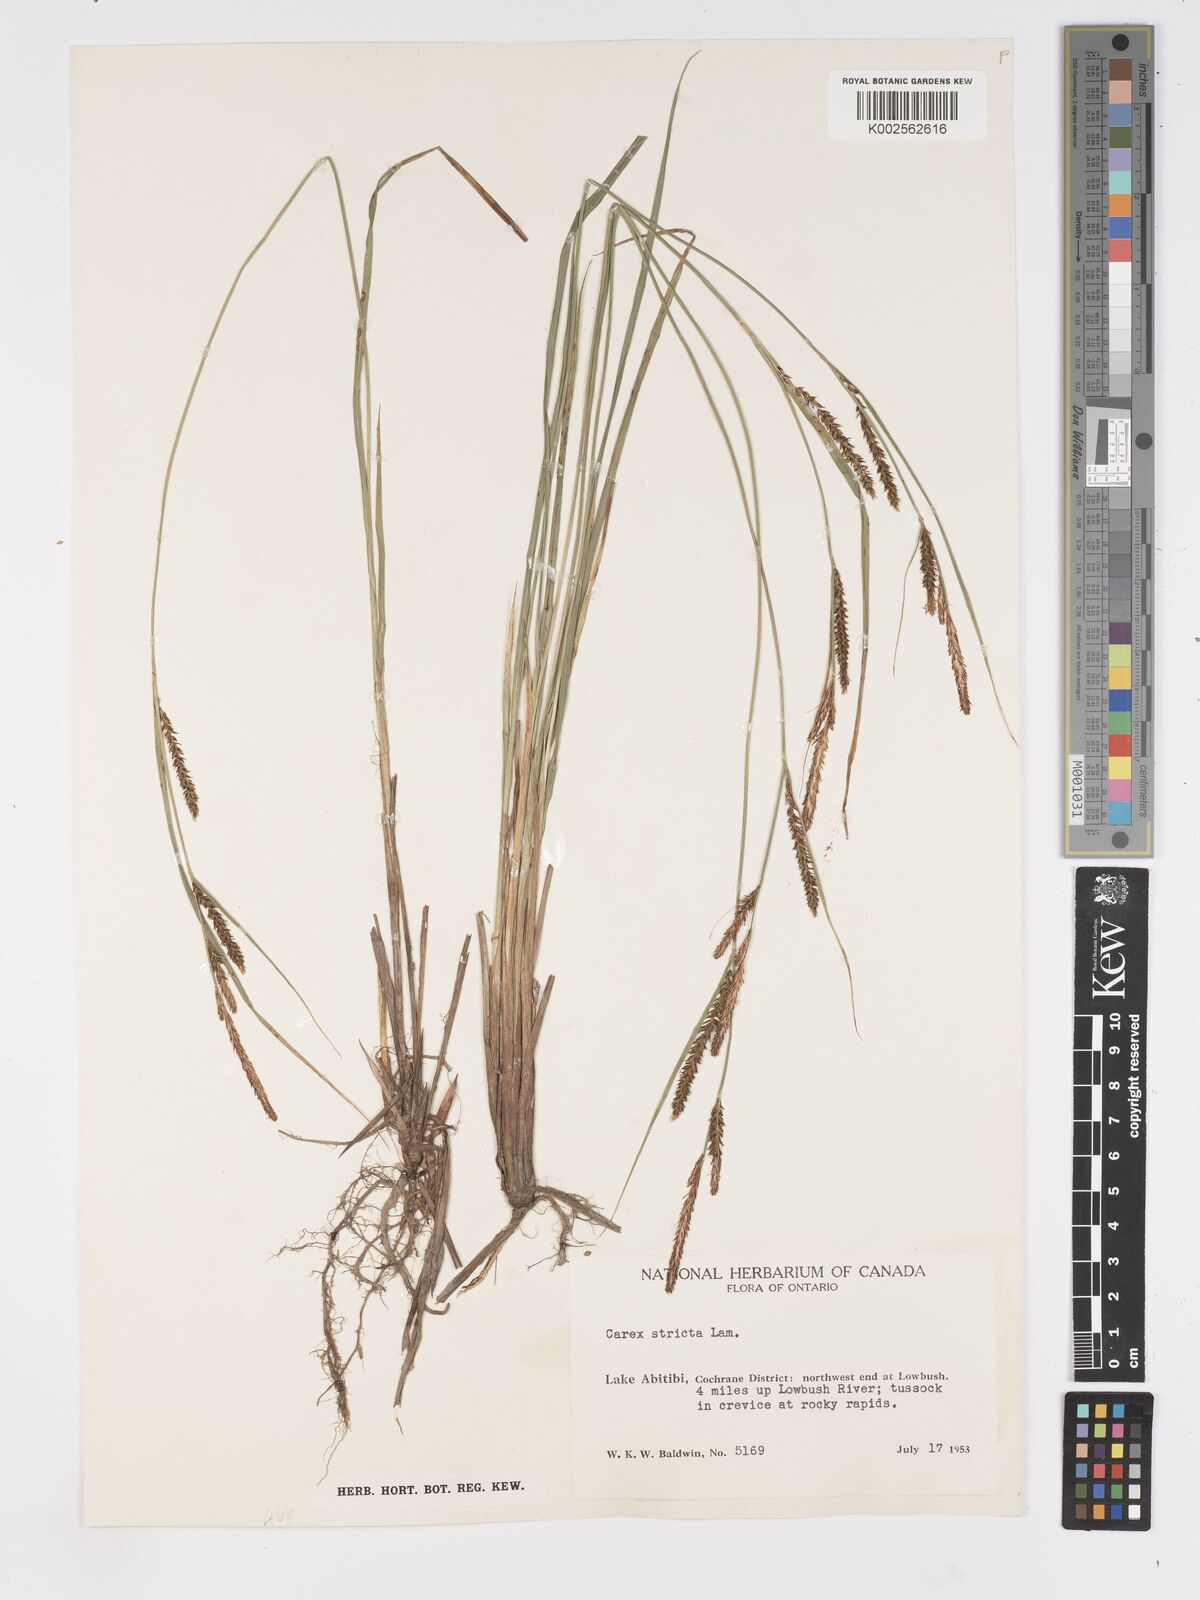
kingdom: Plantae
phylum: Tracheophyta
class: Liliopsida
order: Poales
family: Cyperaceae
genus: Carex
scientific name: Carex stricta
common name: Hummock sedge
